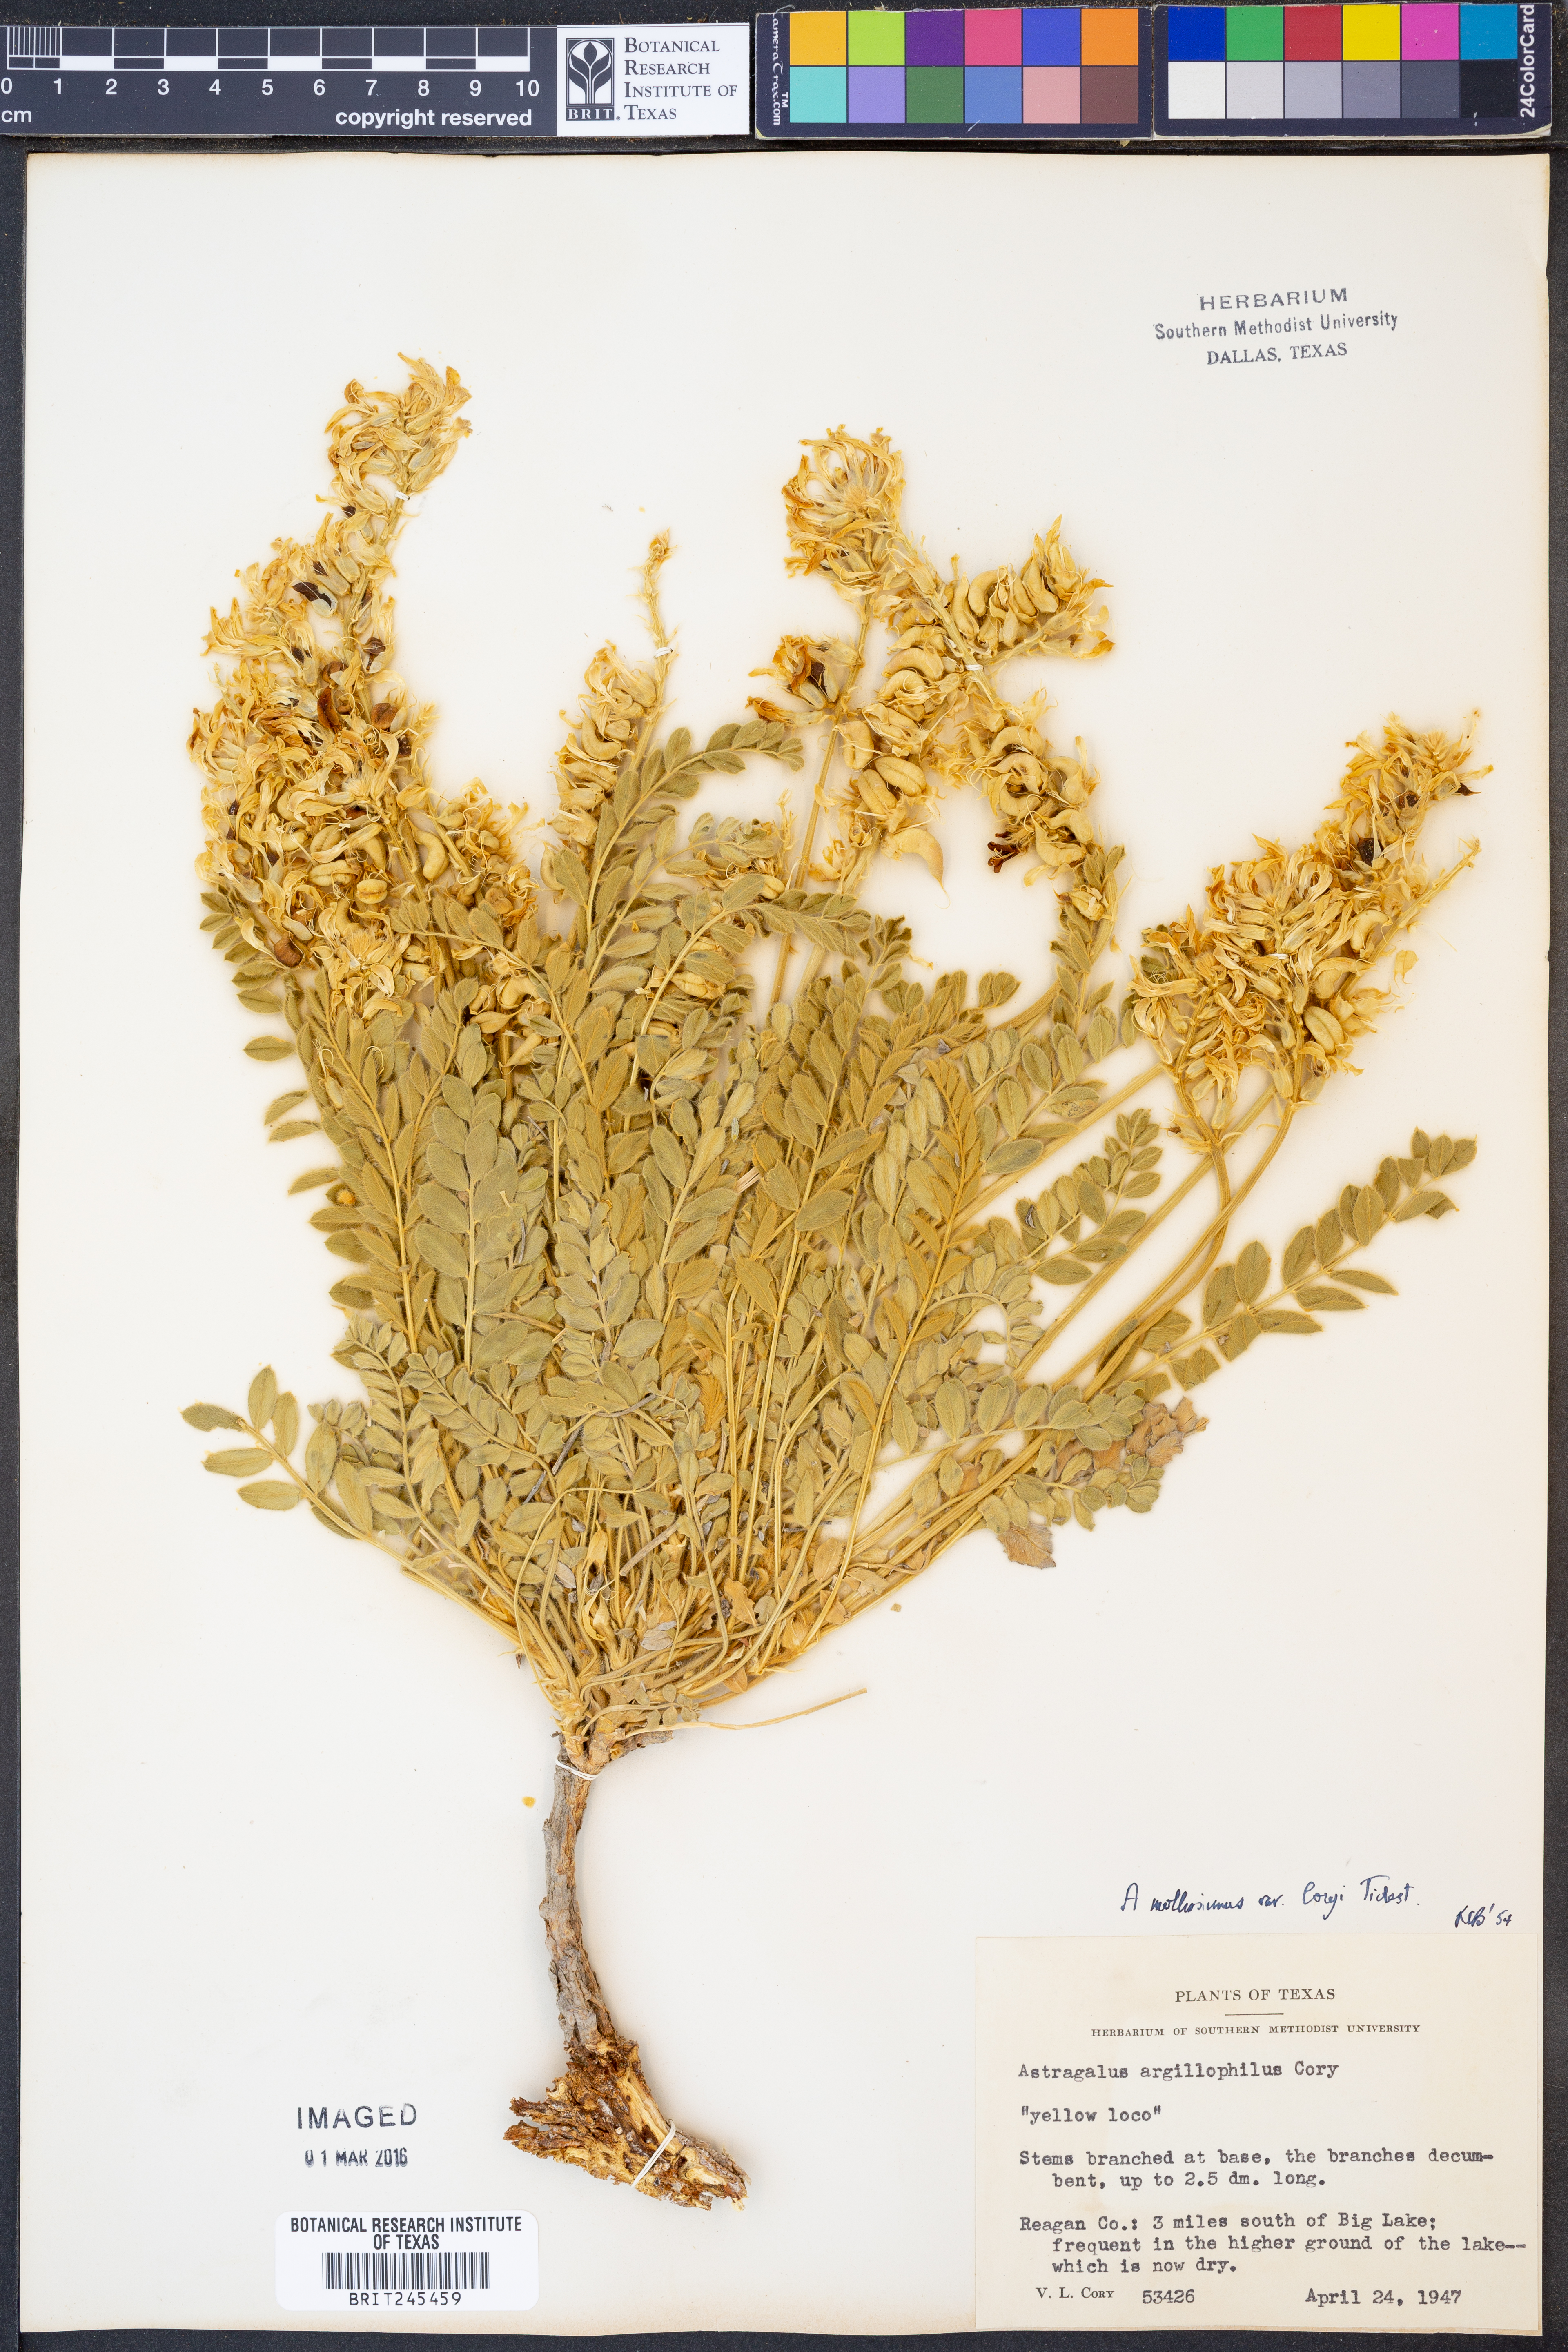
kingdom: Plantae
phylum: Tracheophyta
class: Magnoliopsida
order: Fabales
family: Fabaceae
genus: Astragalus
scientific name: Astragalus mollissimus
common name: Woolly locoweed
